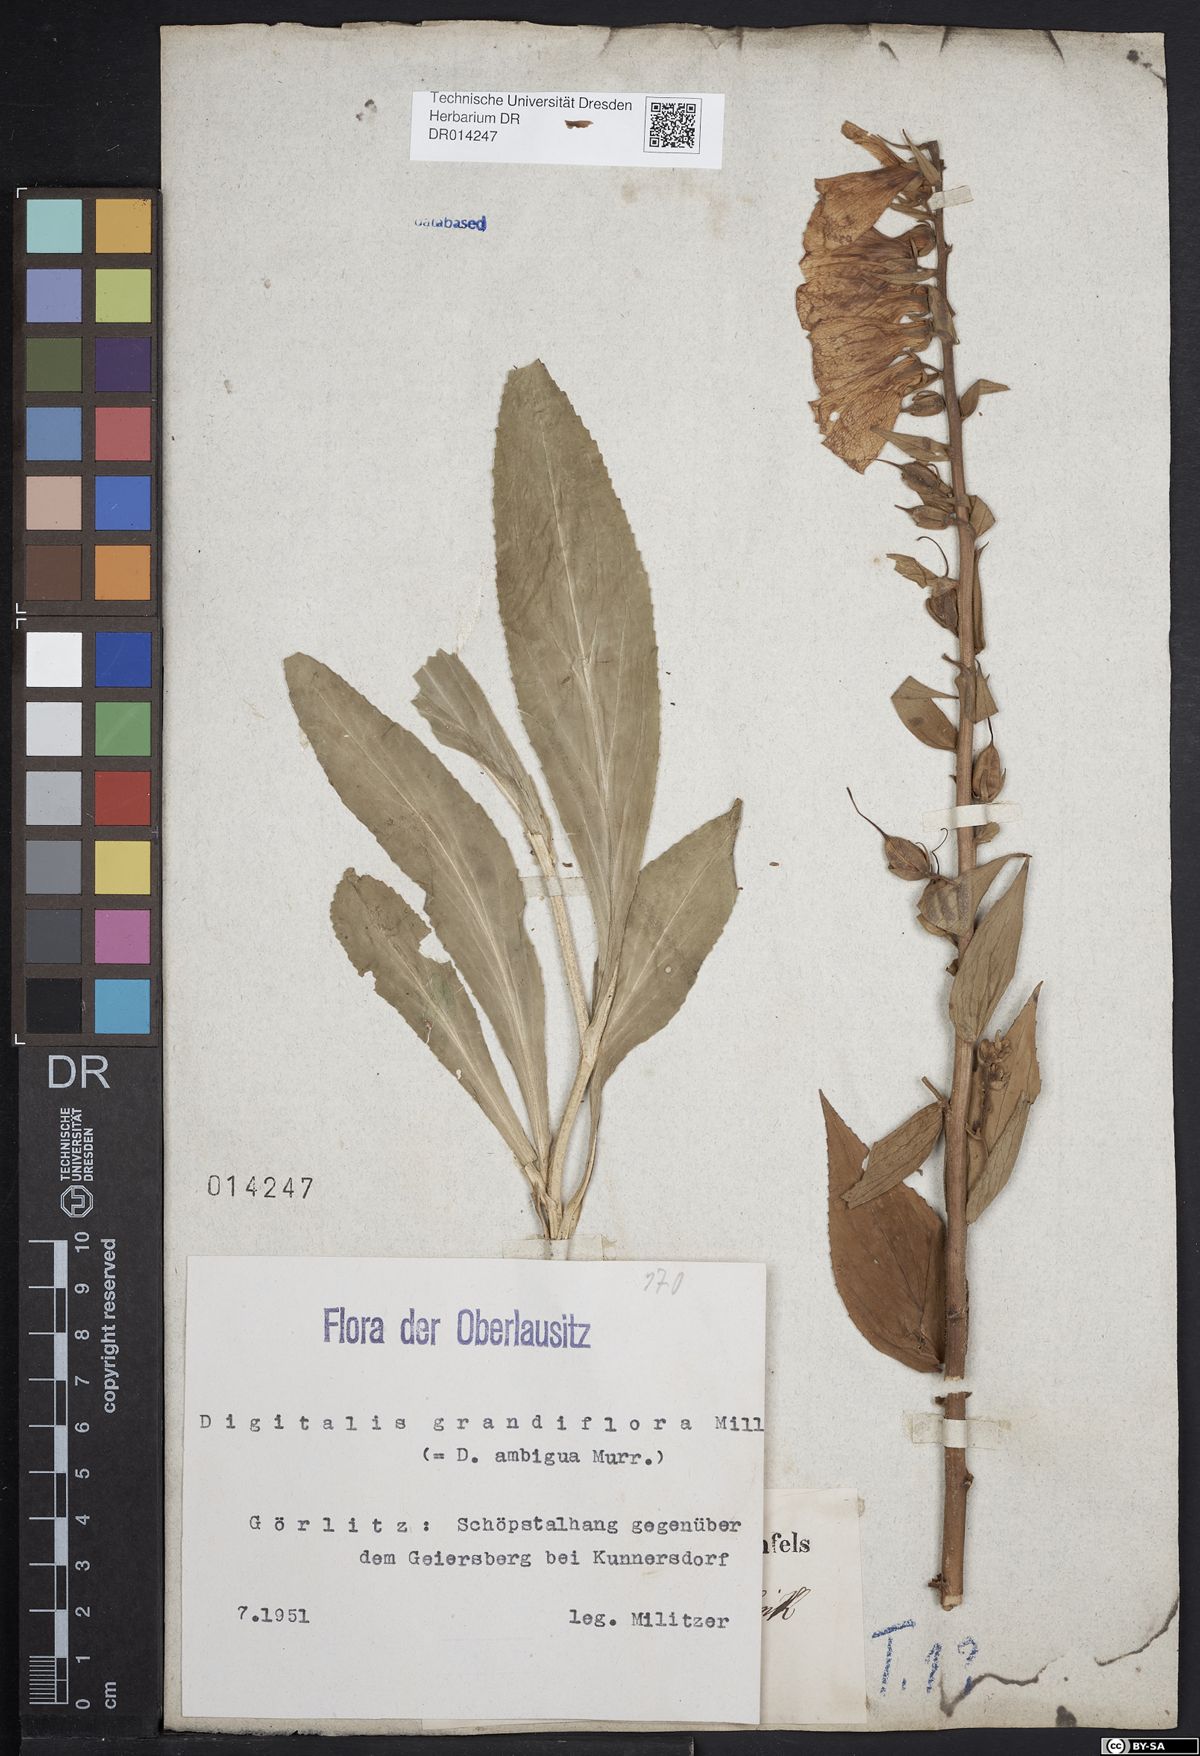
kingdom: Plantae
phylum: Tracheophyta
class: Magnoliopsida
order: Lamiales
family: Plantaginaceae
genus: Digitalis
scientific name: Digitalis grandiflora
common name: Yellow foxglove
